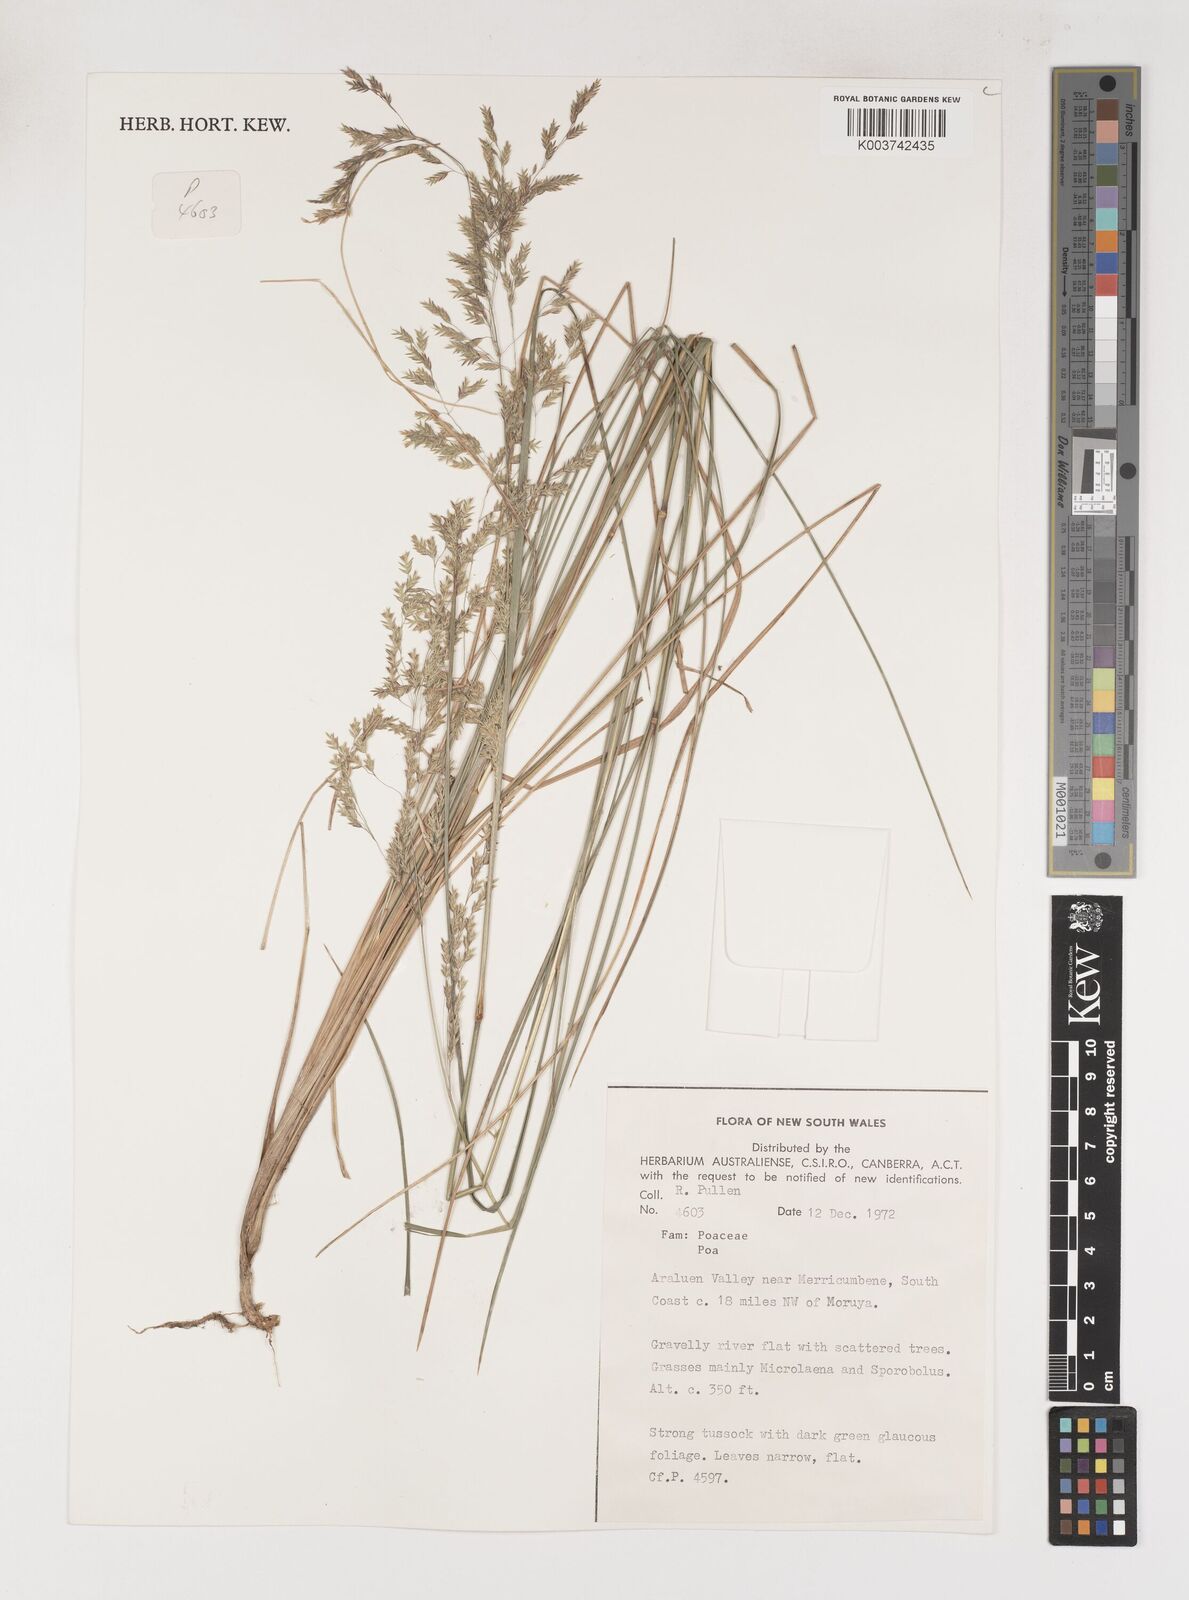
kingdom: Plantae
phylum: Tracheophyta
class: Liliopsida
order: Poales
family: Poaceae
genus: Poa
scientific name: Poa
